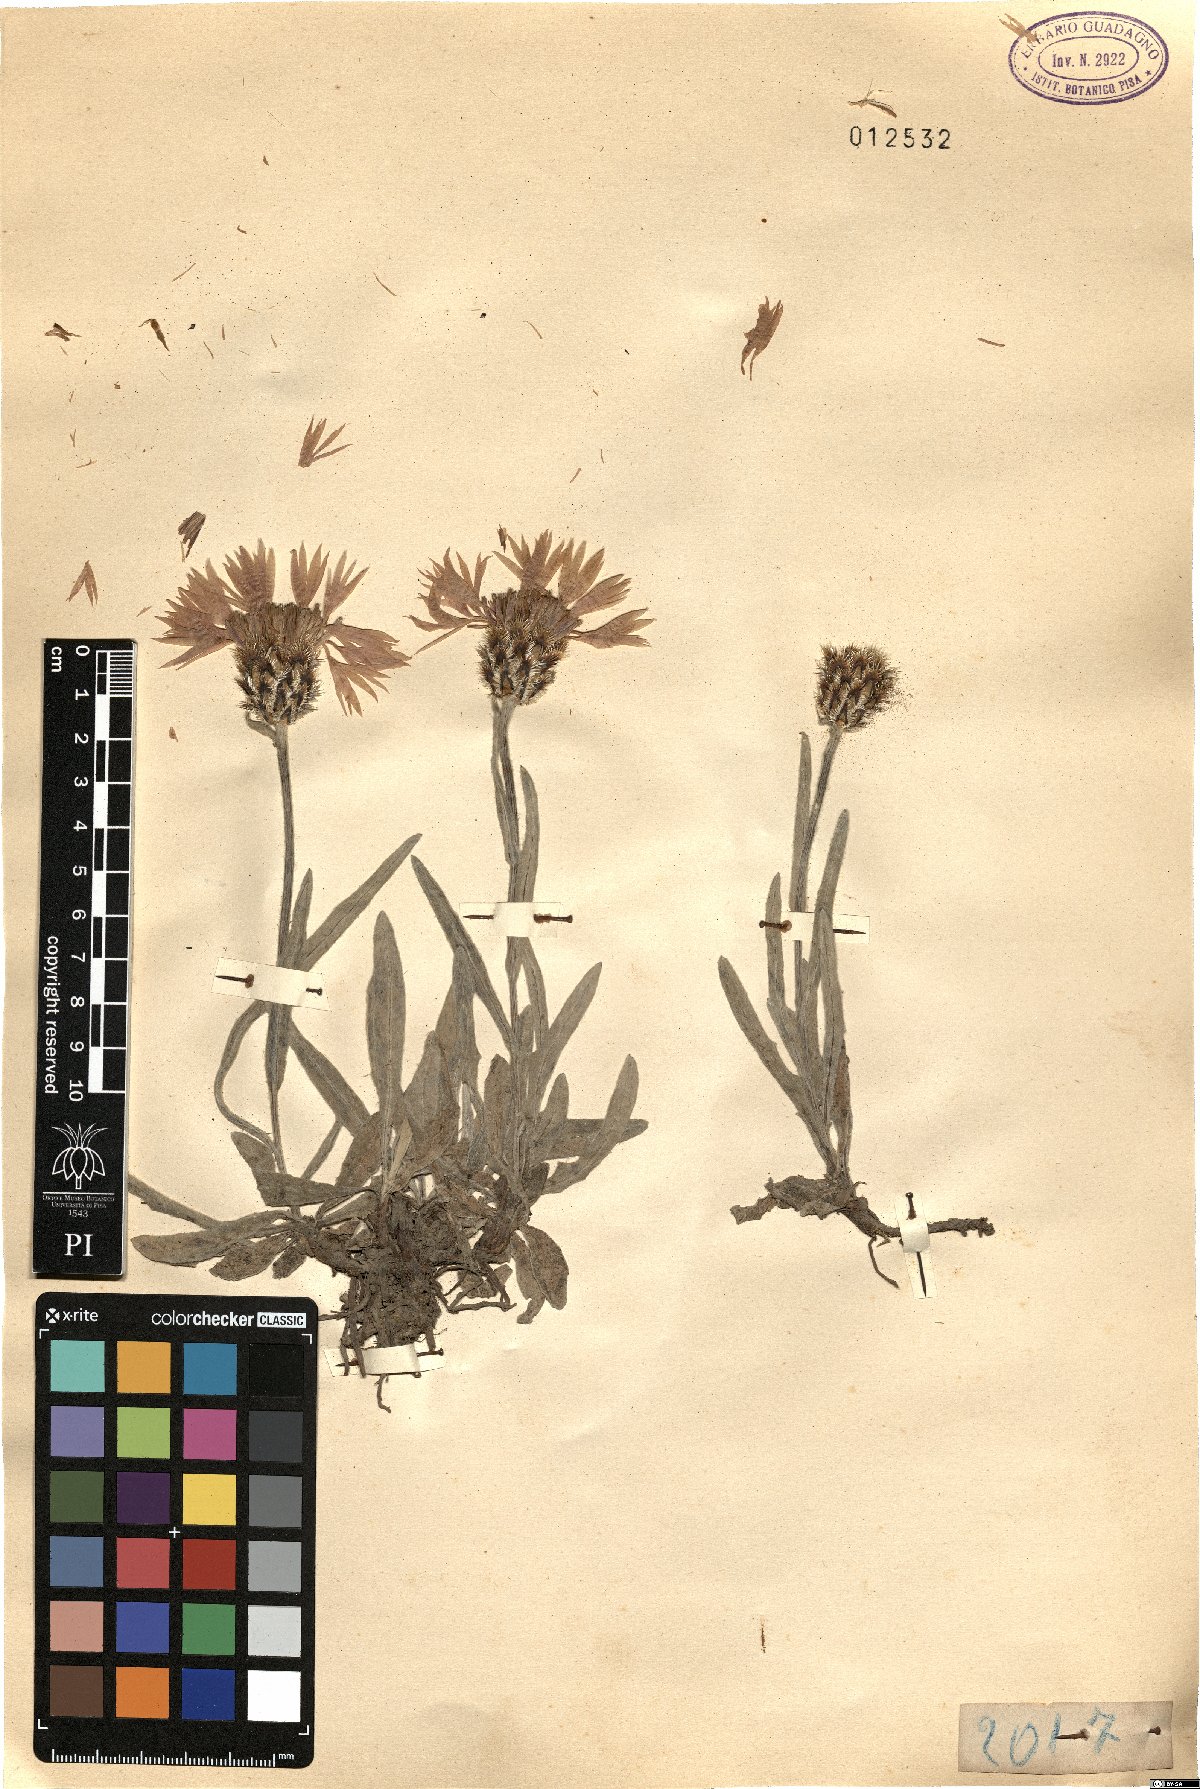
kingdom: Plantae
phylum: Tracheophyta
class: Magnoliopsida
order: Asterales
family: Asteraceae
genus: Centaurea
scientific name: Centaurea
